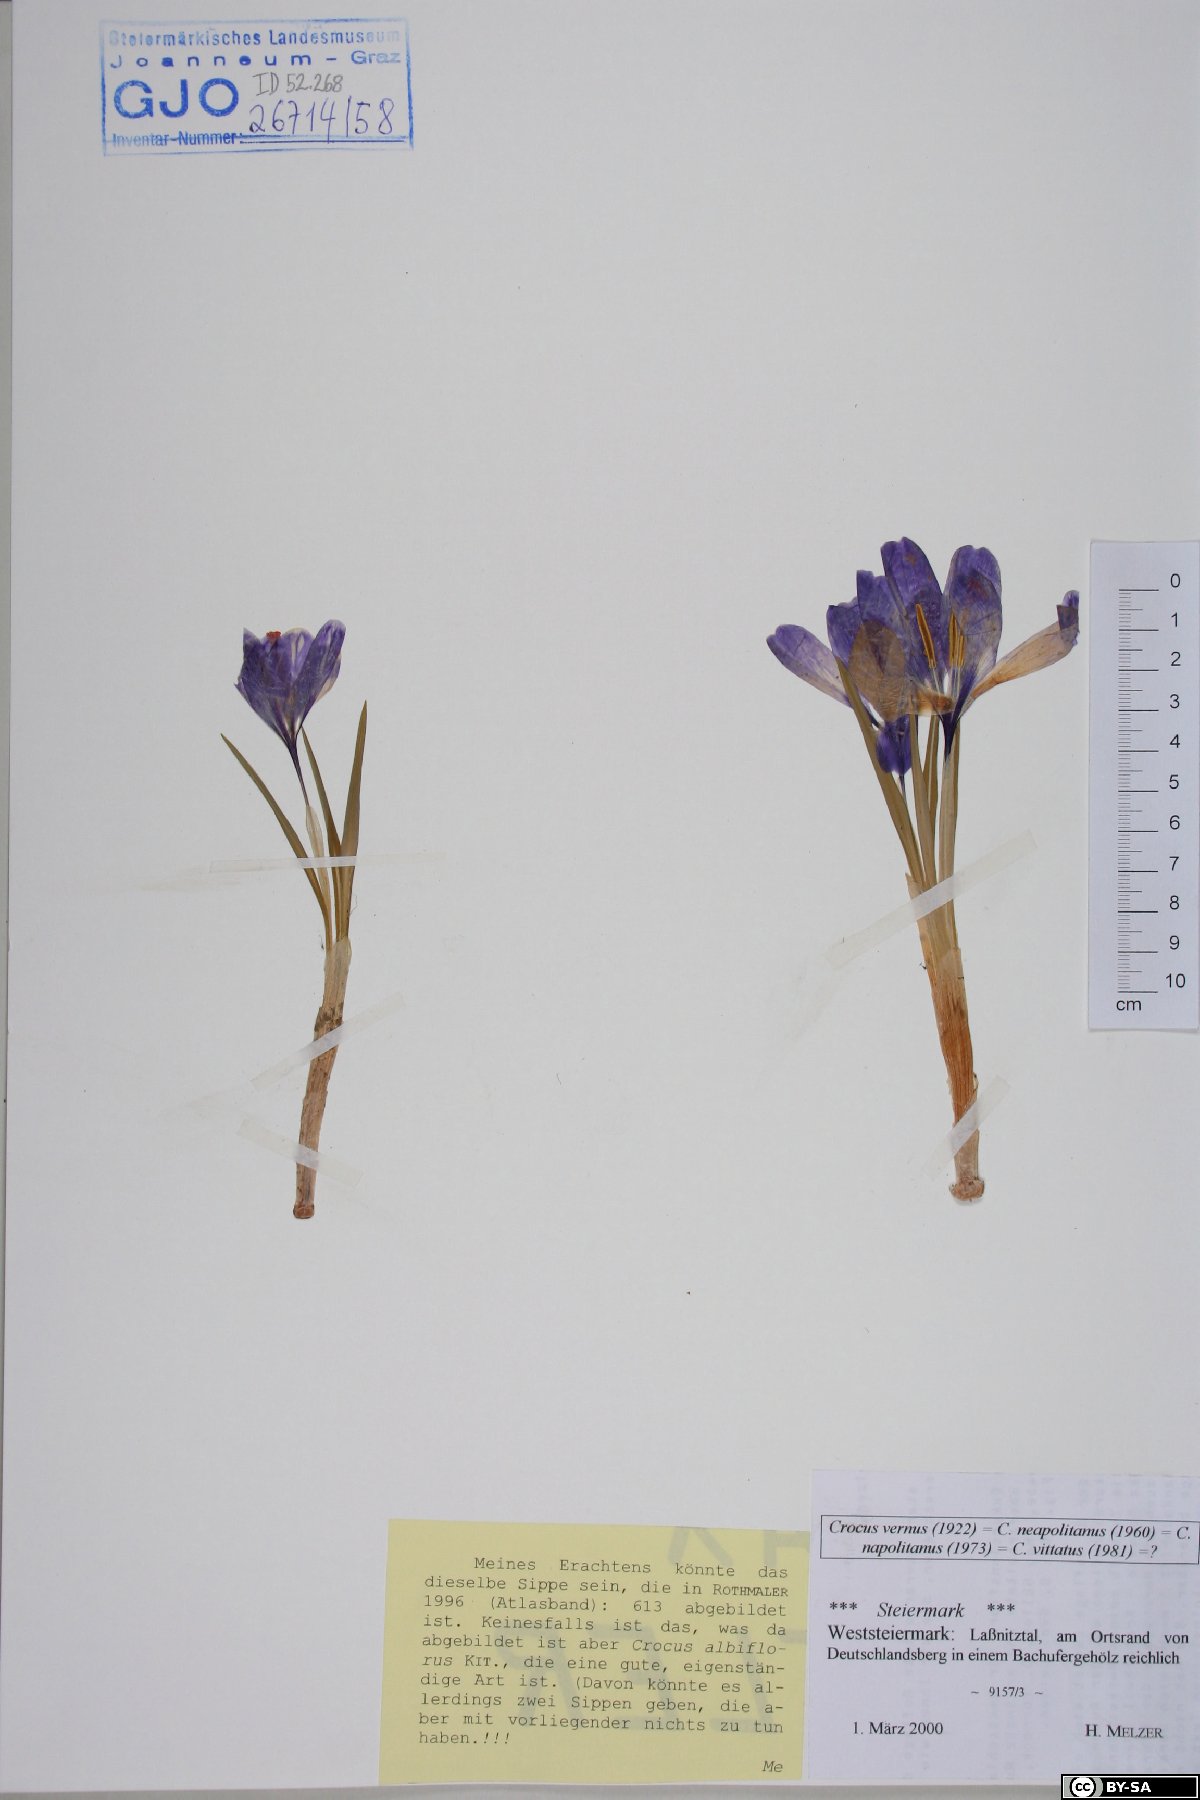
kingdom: Plantae
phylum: Tracheophyta
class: Liliopsida
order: Asparagales
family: Iridaceae
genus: Crocus
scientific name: Crocus vernus
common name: Spring crocus
